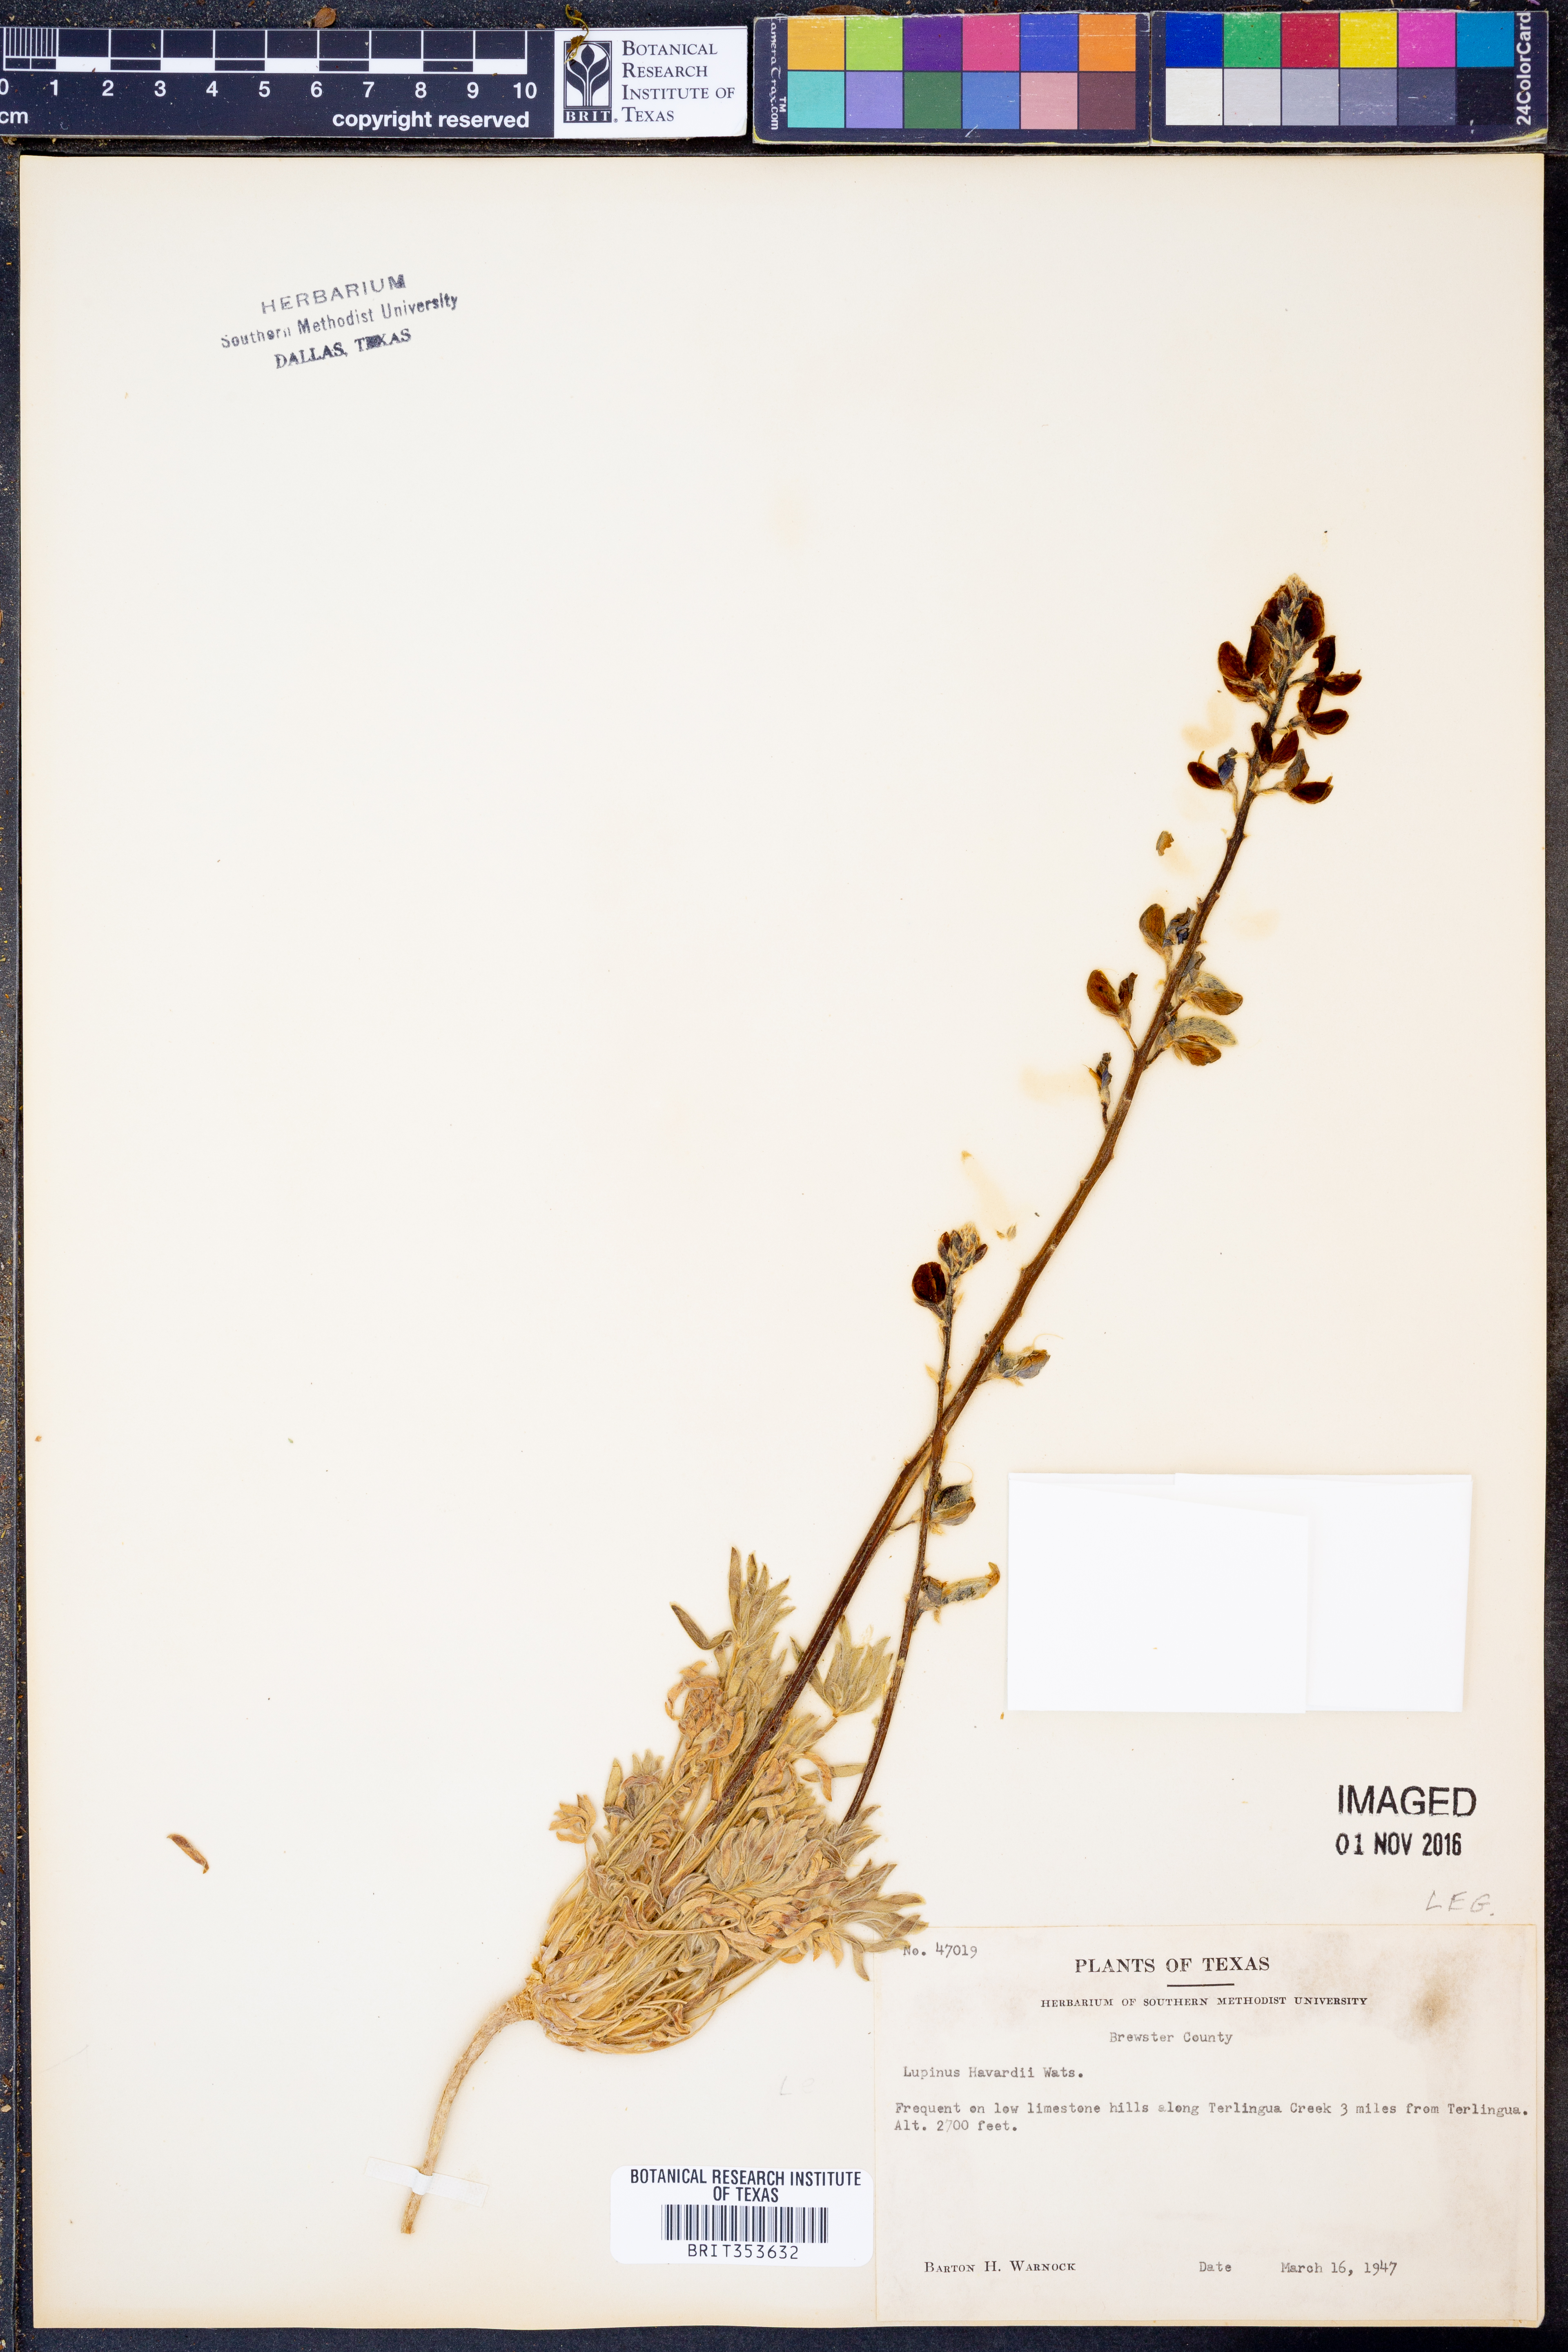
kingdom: Plantae
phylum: Tracheophyta
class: Magnoliopsida
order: Fabales
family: Fabaceae
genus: Lupinus
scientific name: Lupinus havardii
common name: Chisos bluebonnet
